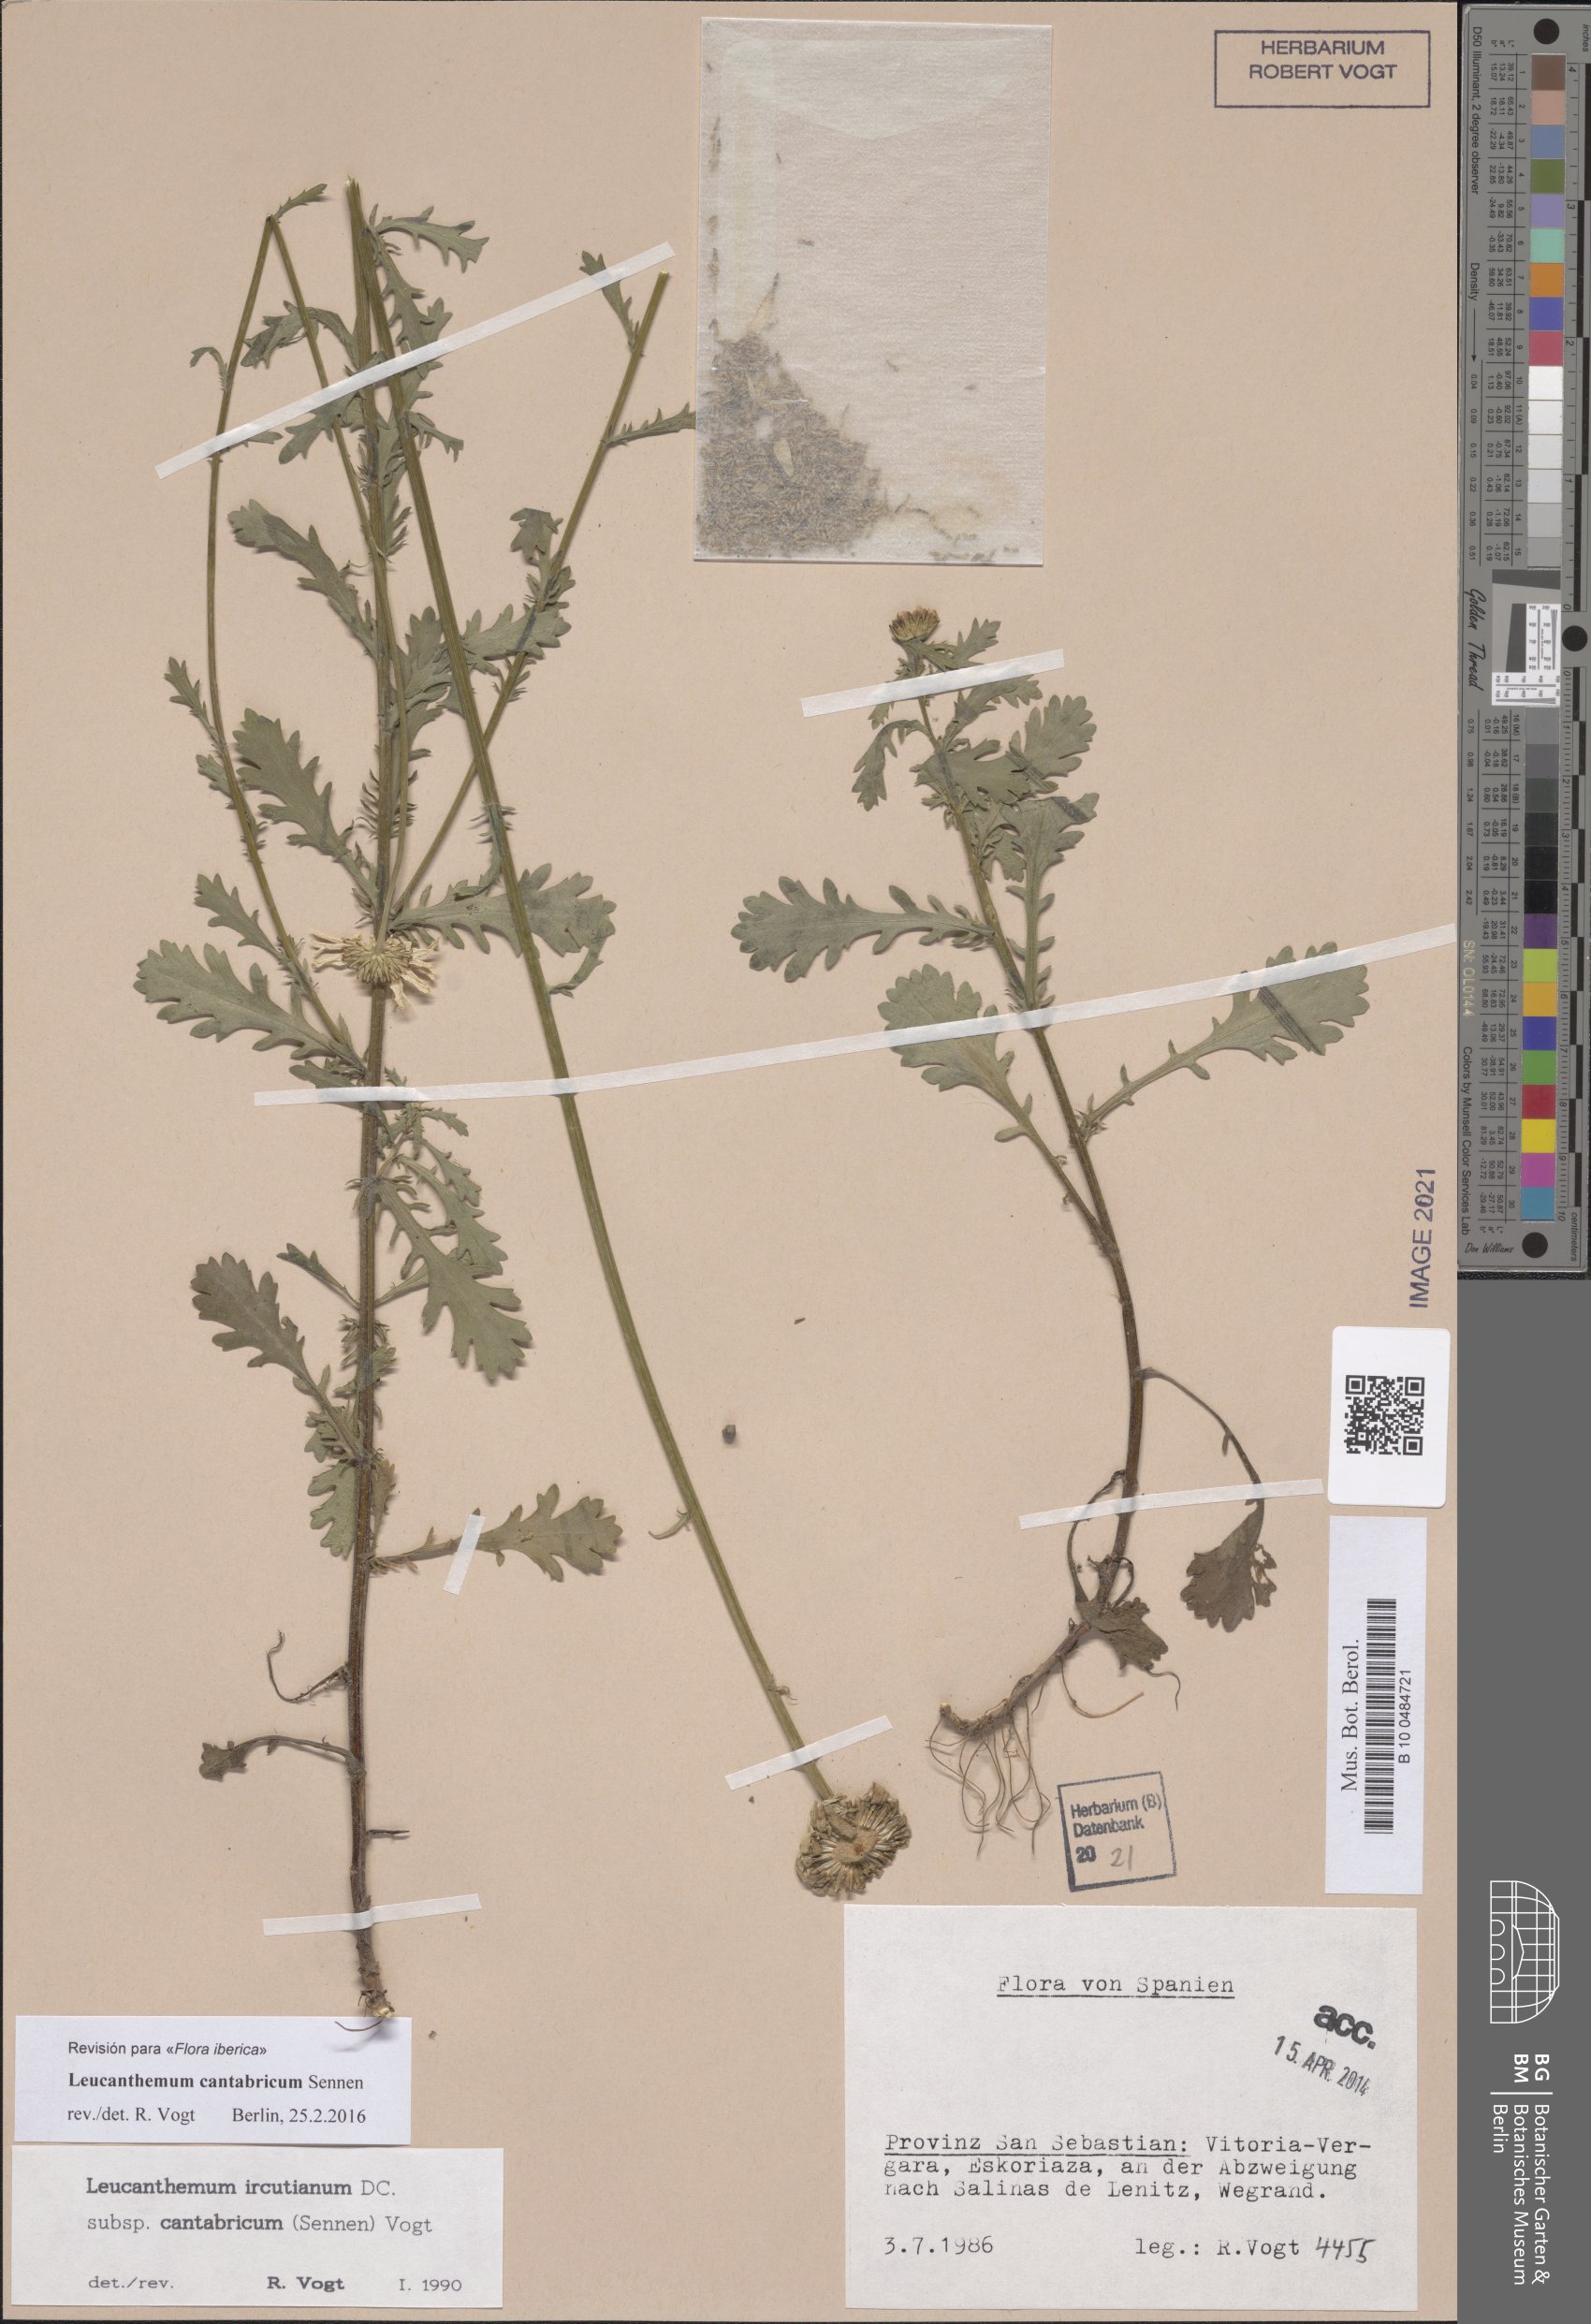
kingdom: Plantae
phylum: Tracheophyta
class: Magnoliopsida
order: Asterales
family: Asteraceae
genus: Leucanthemum
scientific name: Leucanthemum cantabricum
